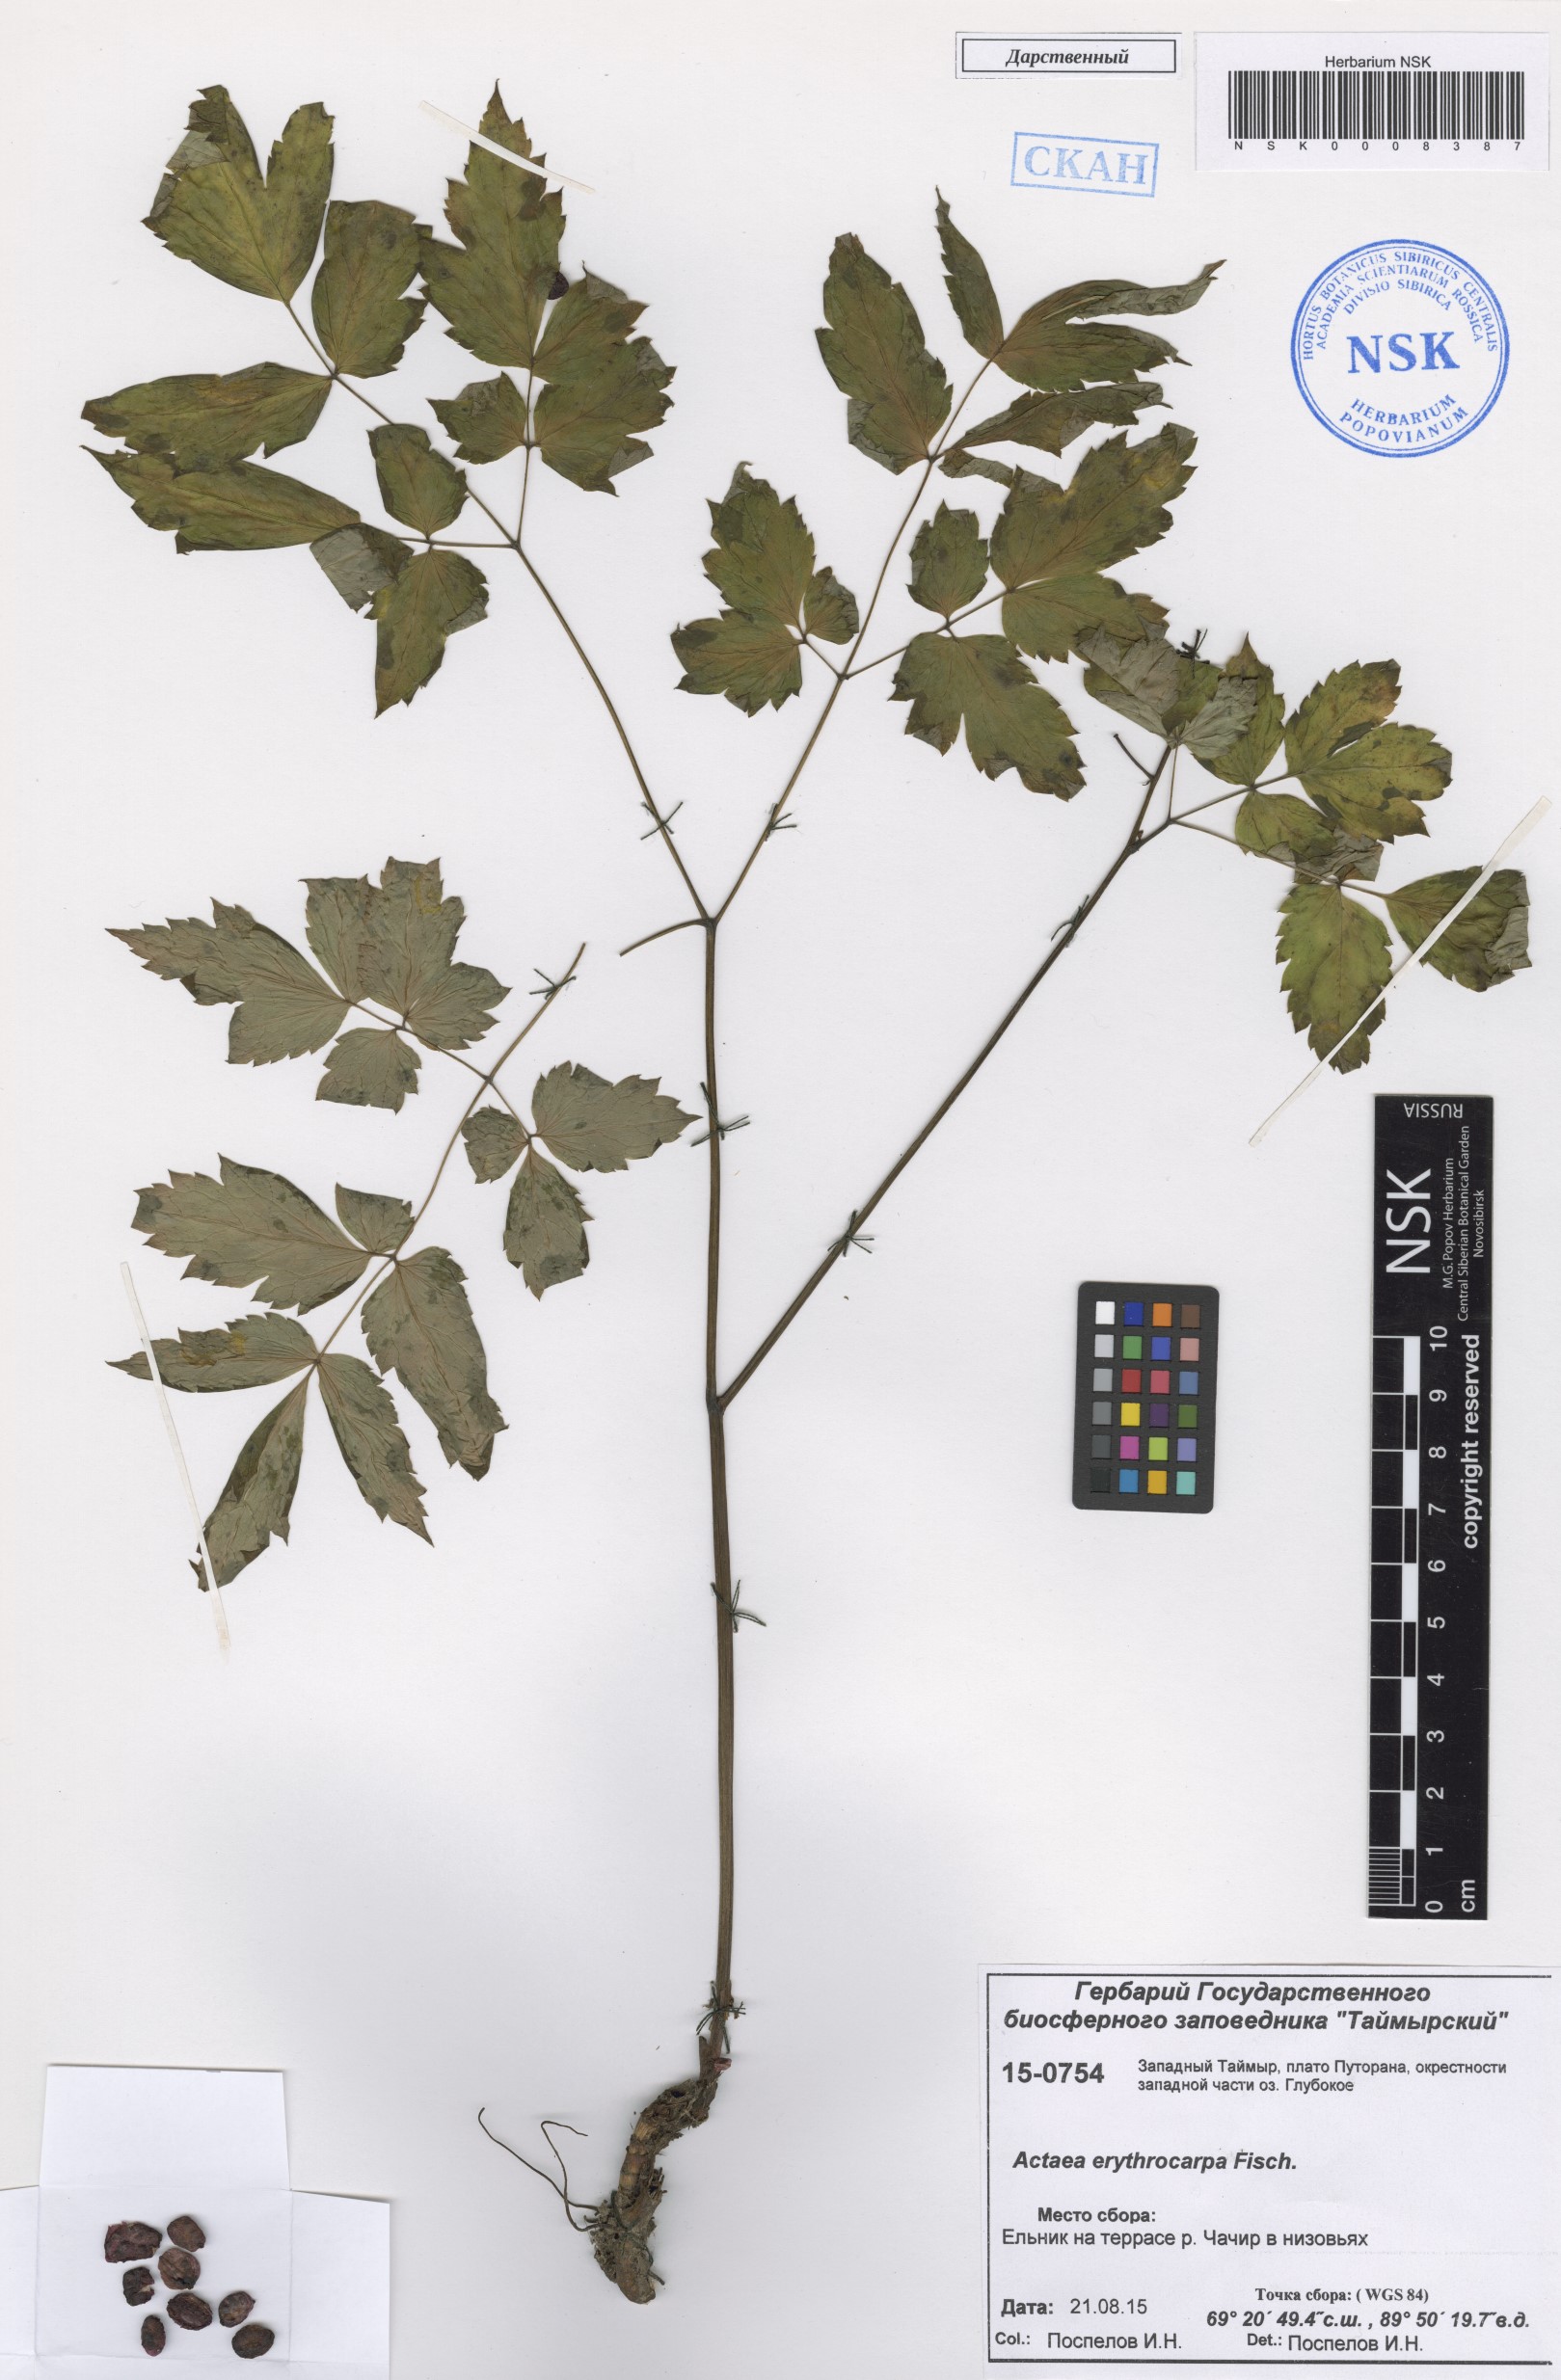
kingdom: Plantae
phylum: Tracheophyta
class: Magnoliopsida
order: Ranunculales
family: Ranunculaceae
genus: Actaea
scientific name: Actaea erythrocarpa
